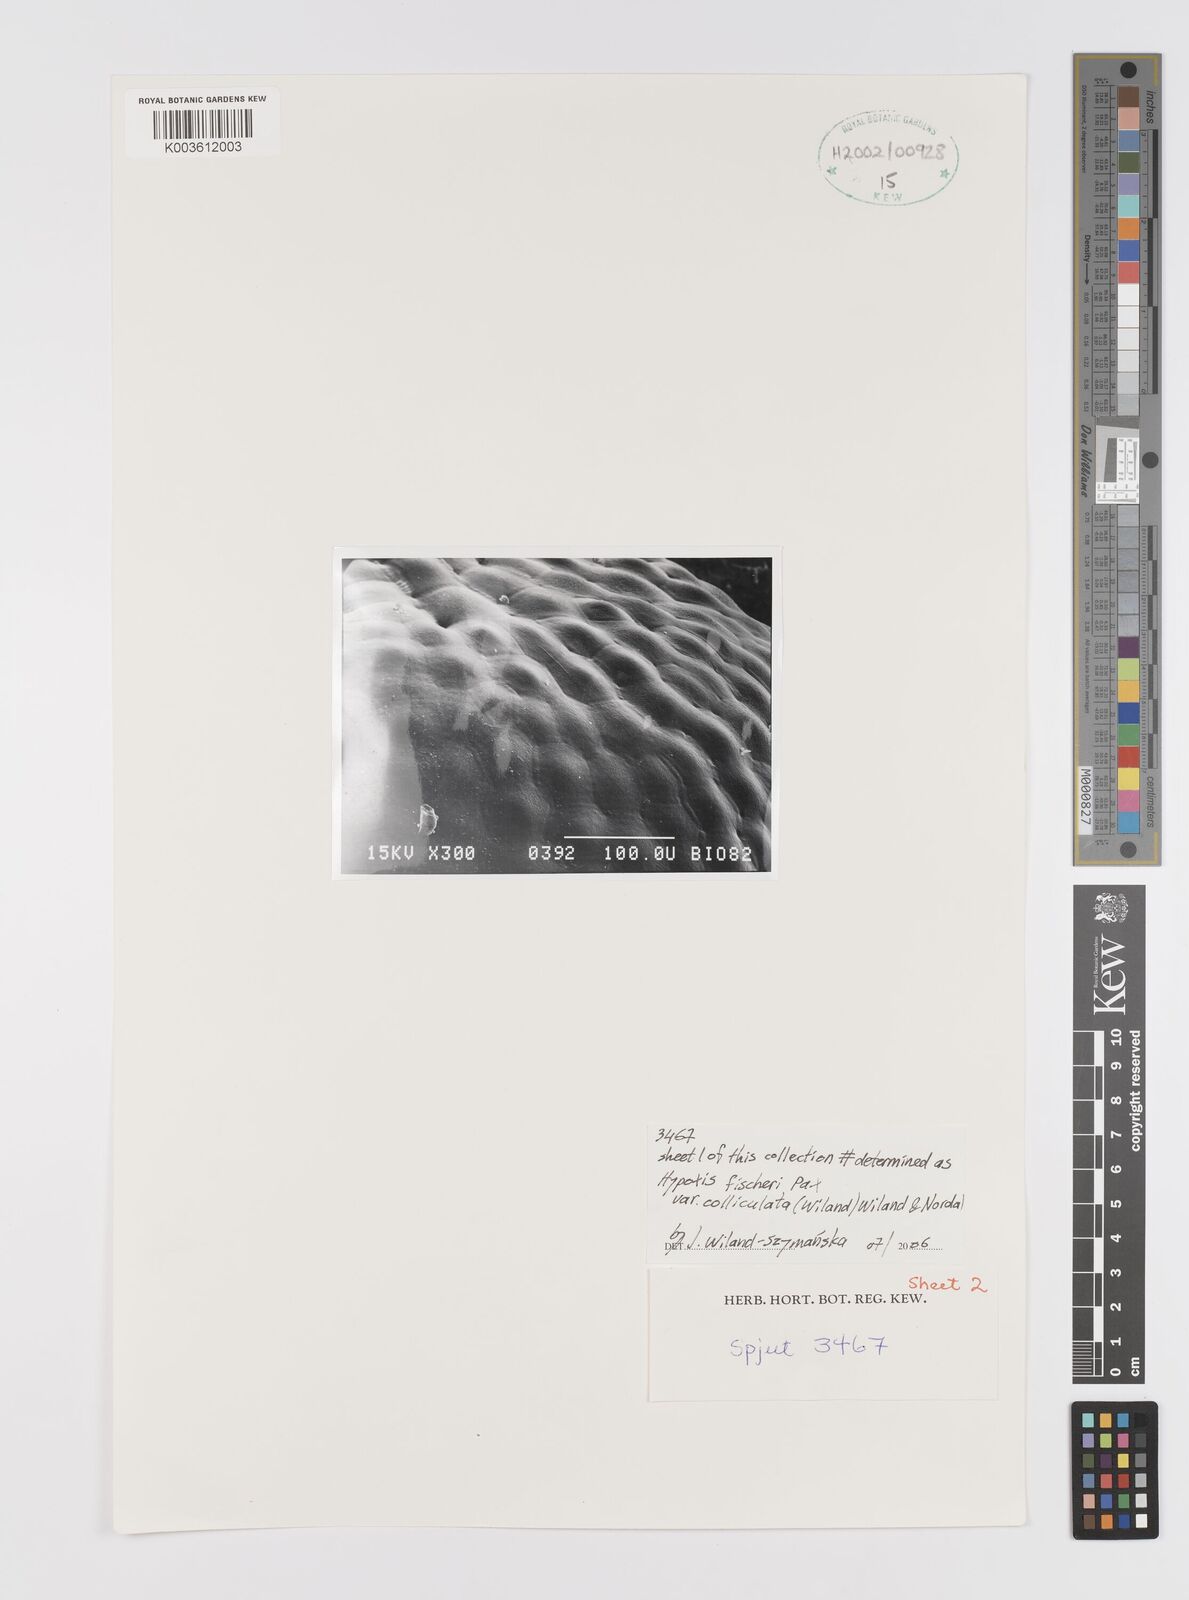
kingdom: Plantae
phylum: Tracheophyta
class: Liliopsida
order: Asparagales
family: Hypoxidaceae
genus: Hypoxis
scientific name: Hypoxis fischeri
